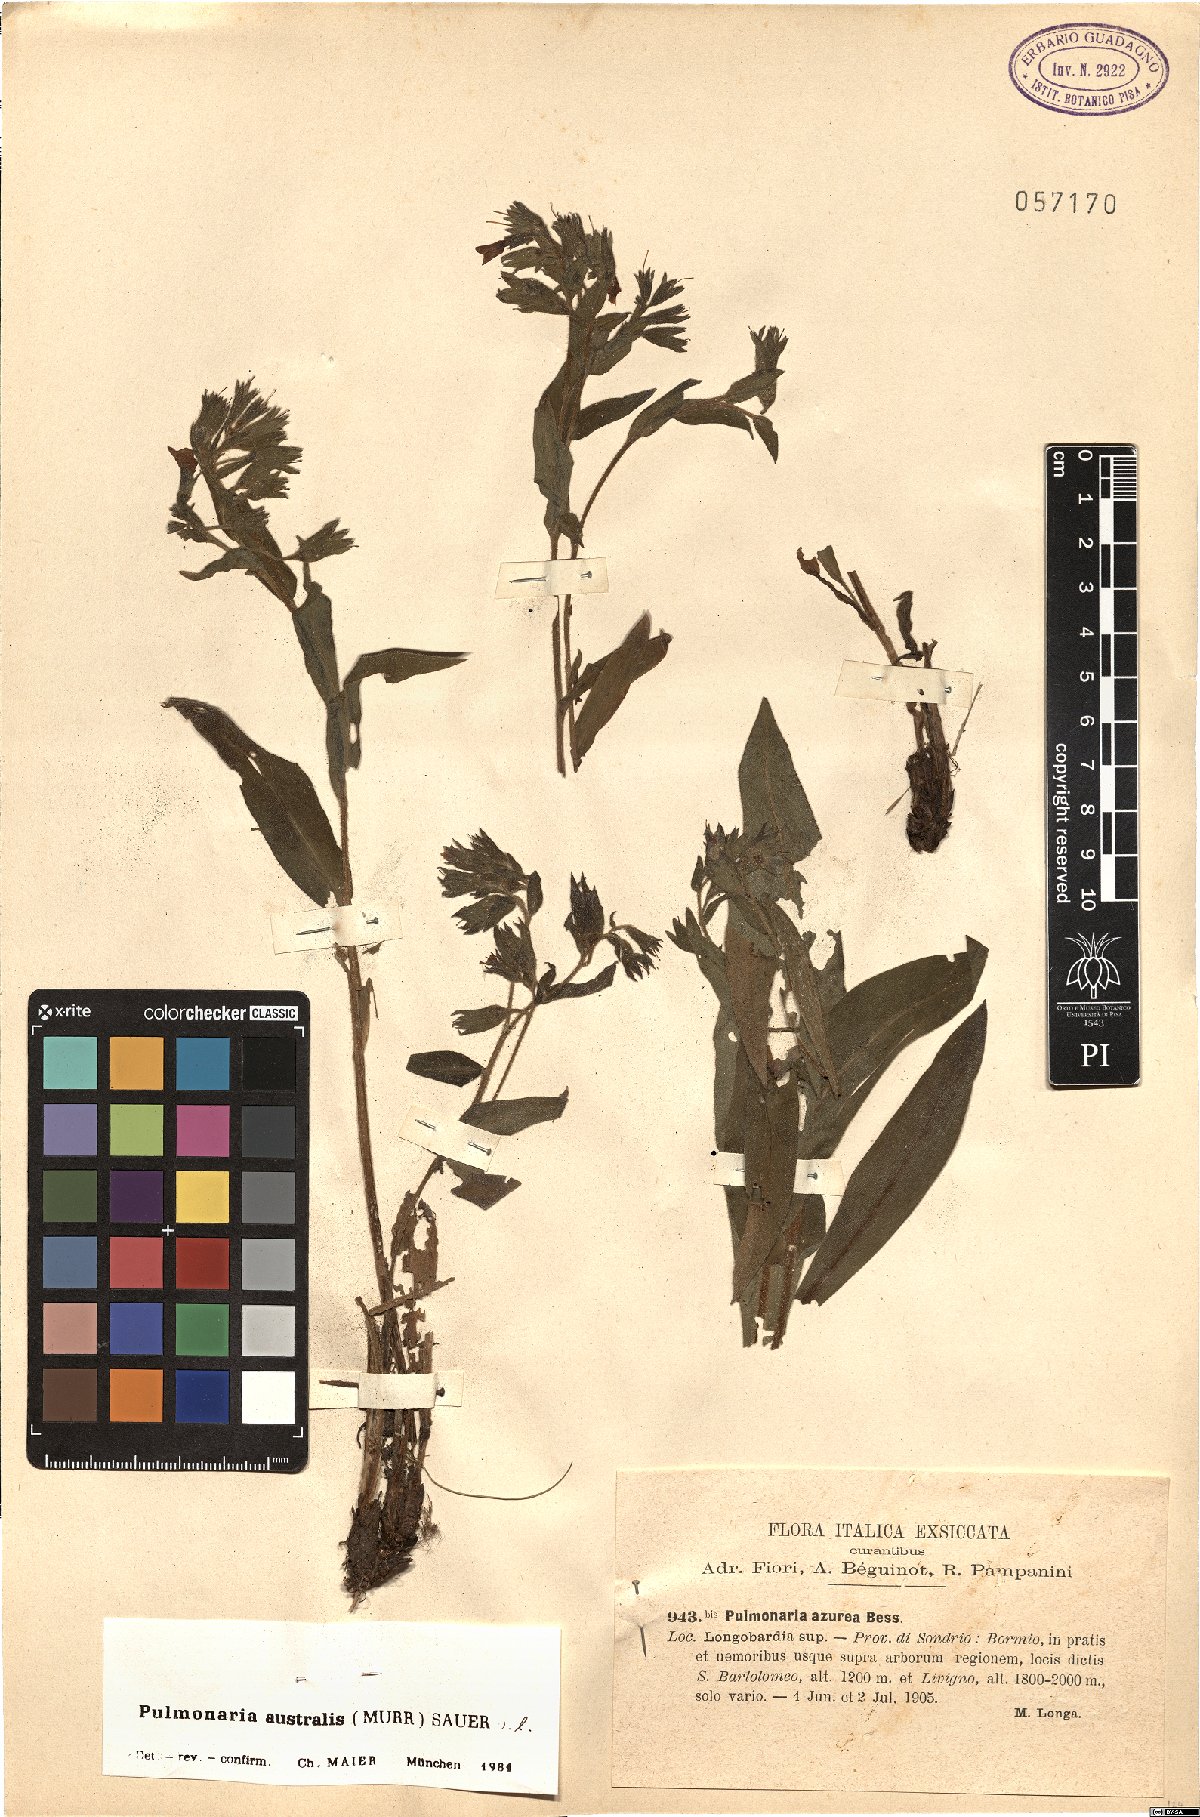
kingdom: Plantae
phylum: Tracheophyta
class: Magnoliopsida
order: Boraginales
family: Boraginaceae
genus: Pulmonaria
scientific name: Pulmonaria australis
